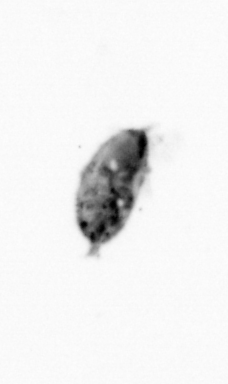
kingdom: Animalia
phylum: Arthropoda
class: Maxillopoda
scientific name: Maxillopoda
